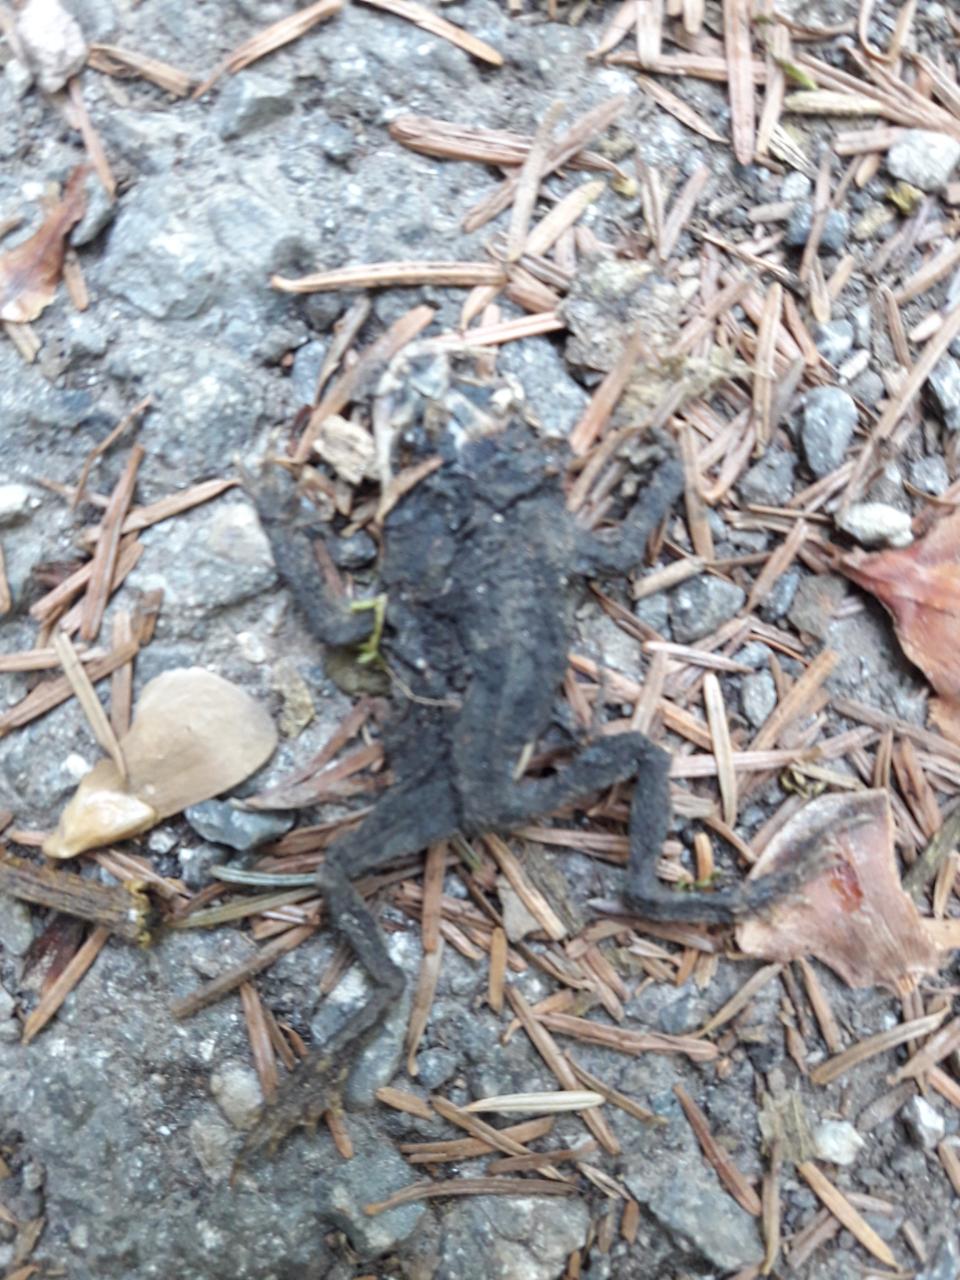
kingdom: Animalia
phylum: Chordata
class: Amphibia
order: Anura
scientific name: Anura
